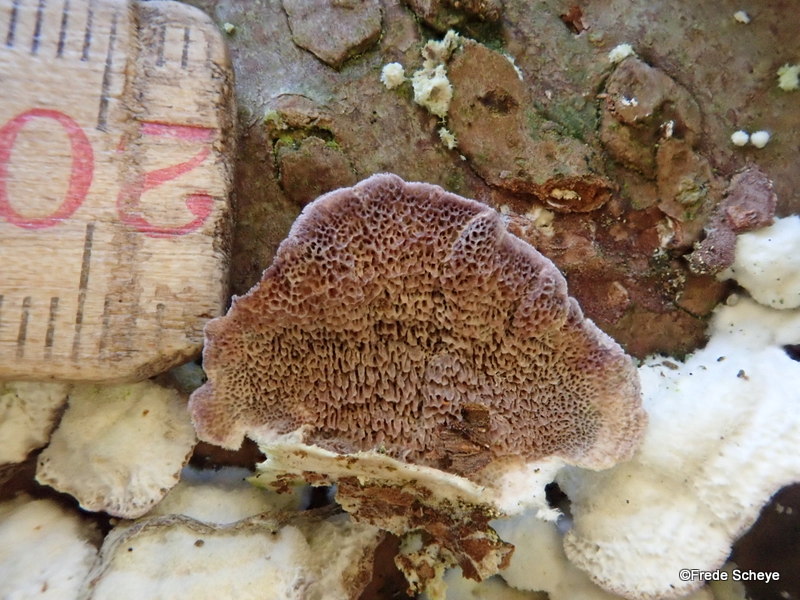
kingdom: Fungi
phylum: Basidiomycota
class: Agaricomycetes
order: Hymenochaetales
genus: Trichaptum
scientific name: Trichaptum abietinum
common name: almindelig violporesvamp
